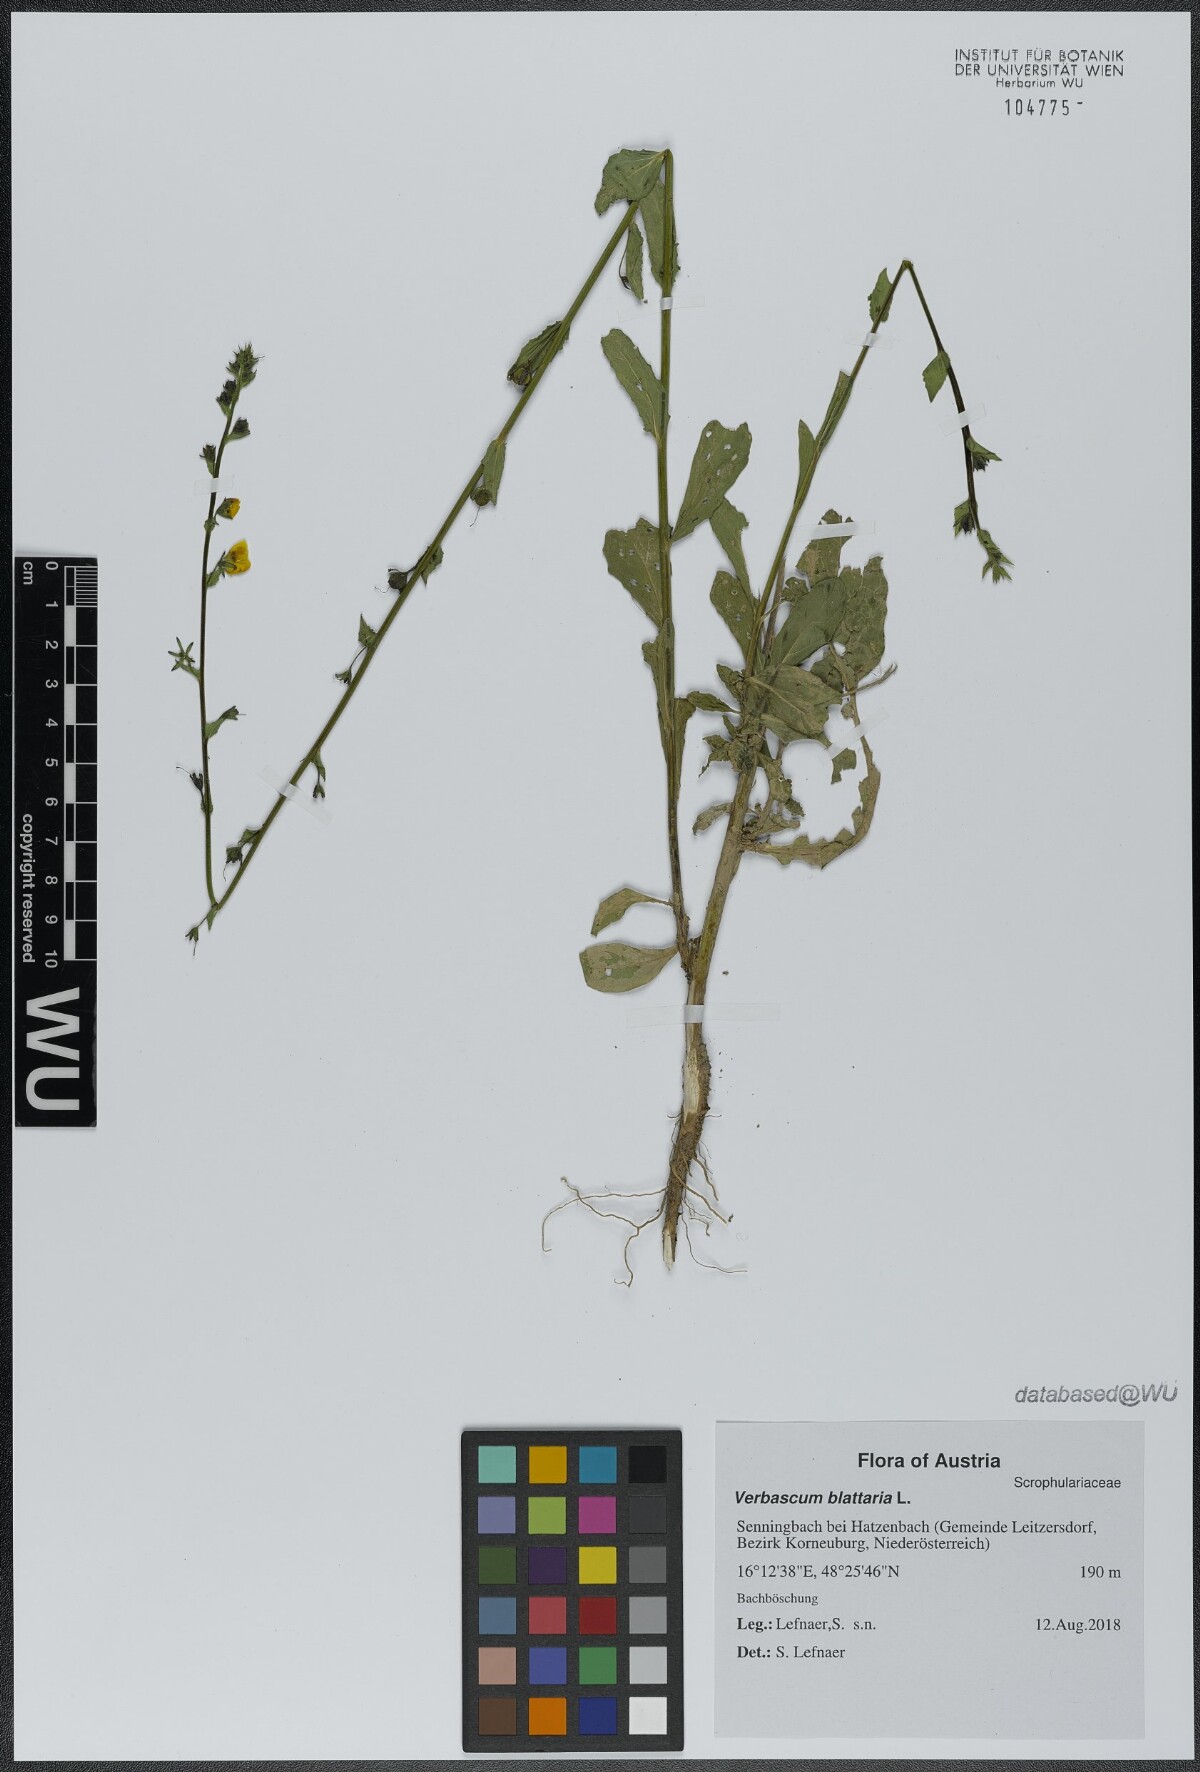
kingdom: Plantae
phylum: Tracheophyta
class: Magnoliopsida
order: Lamiales
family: Scrophulariaceae
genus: Verbascum
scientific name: Verbascum blattaria
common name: Moth mullein
